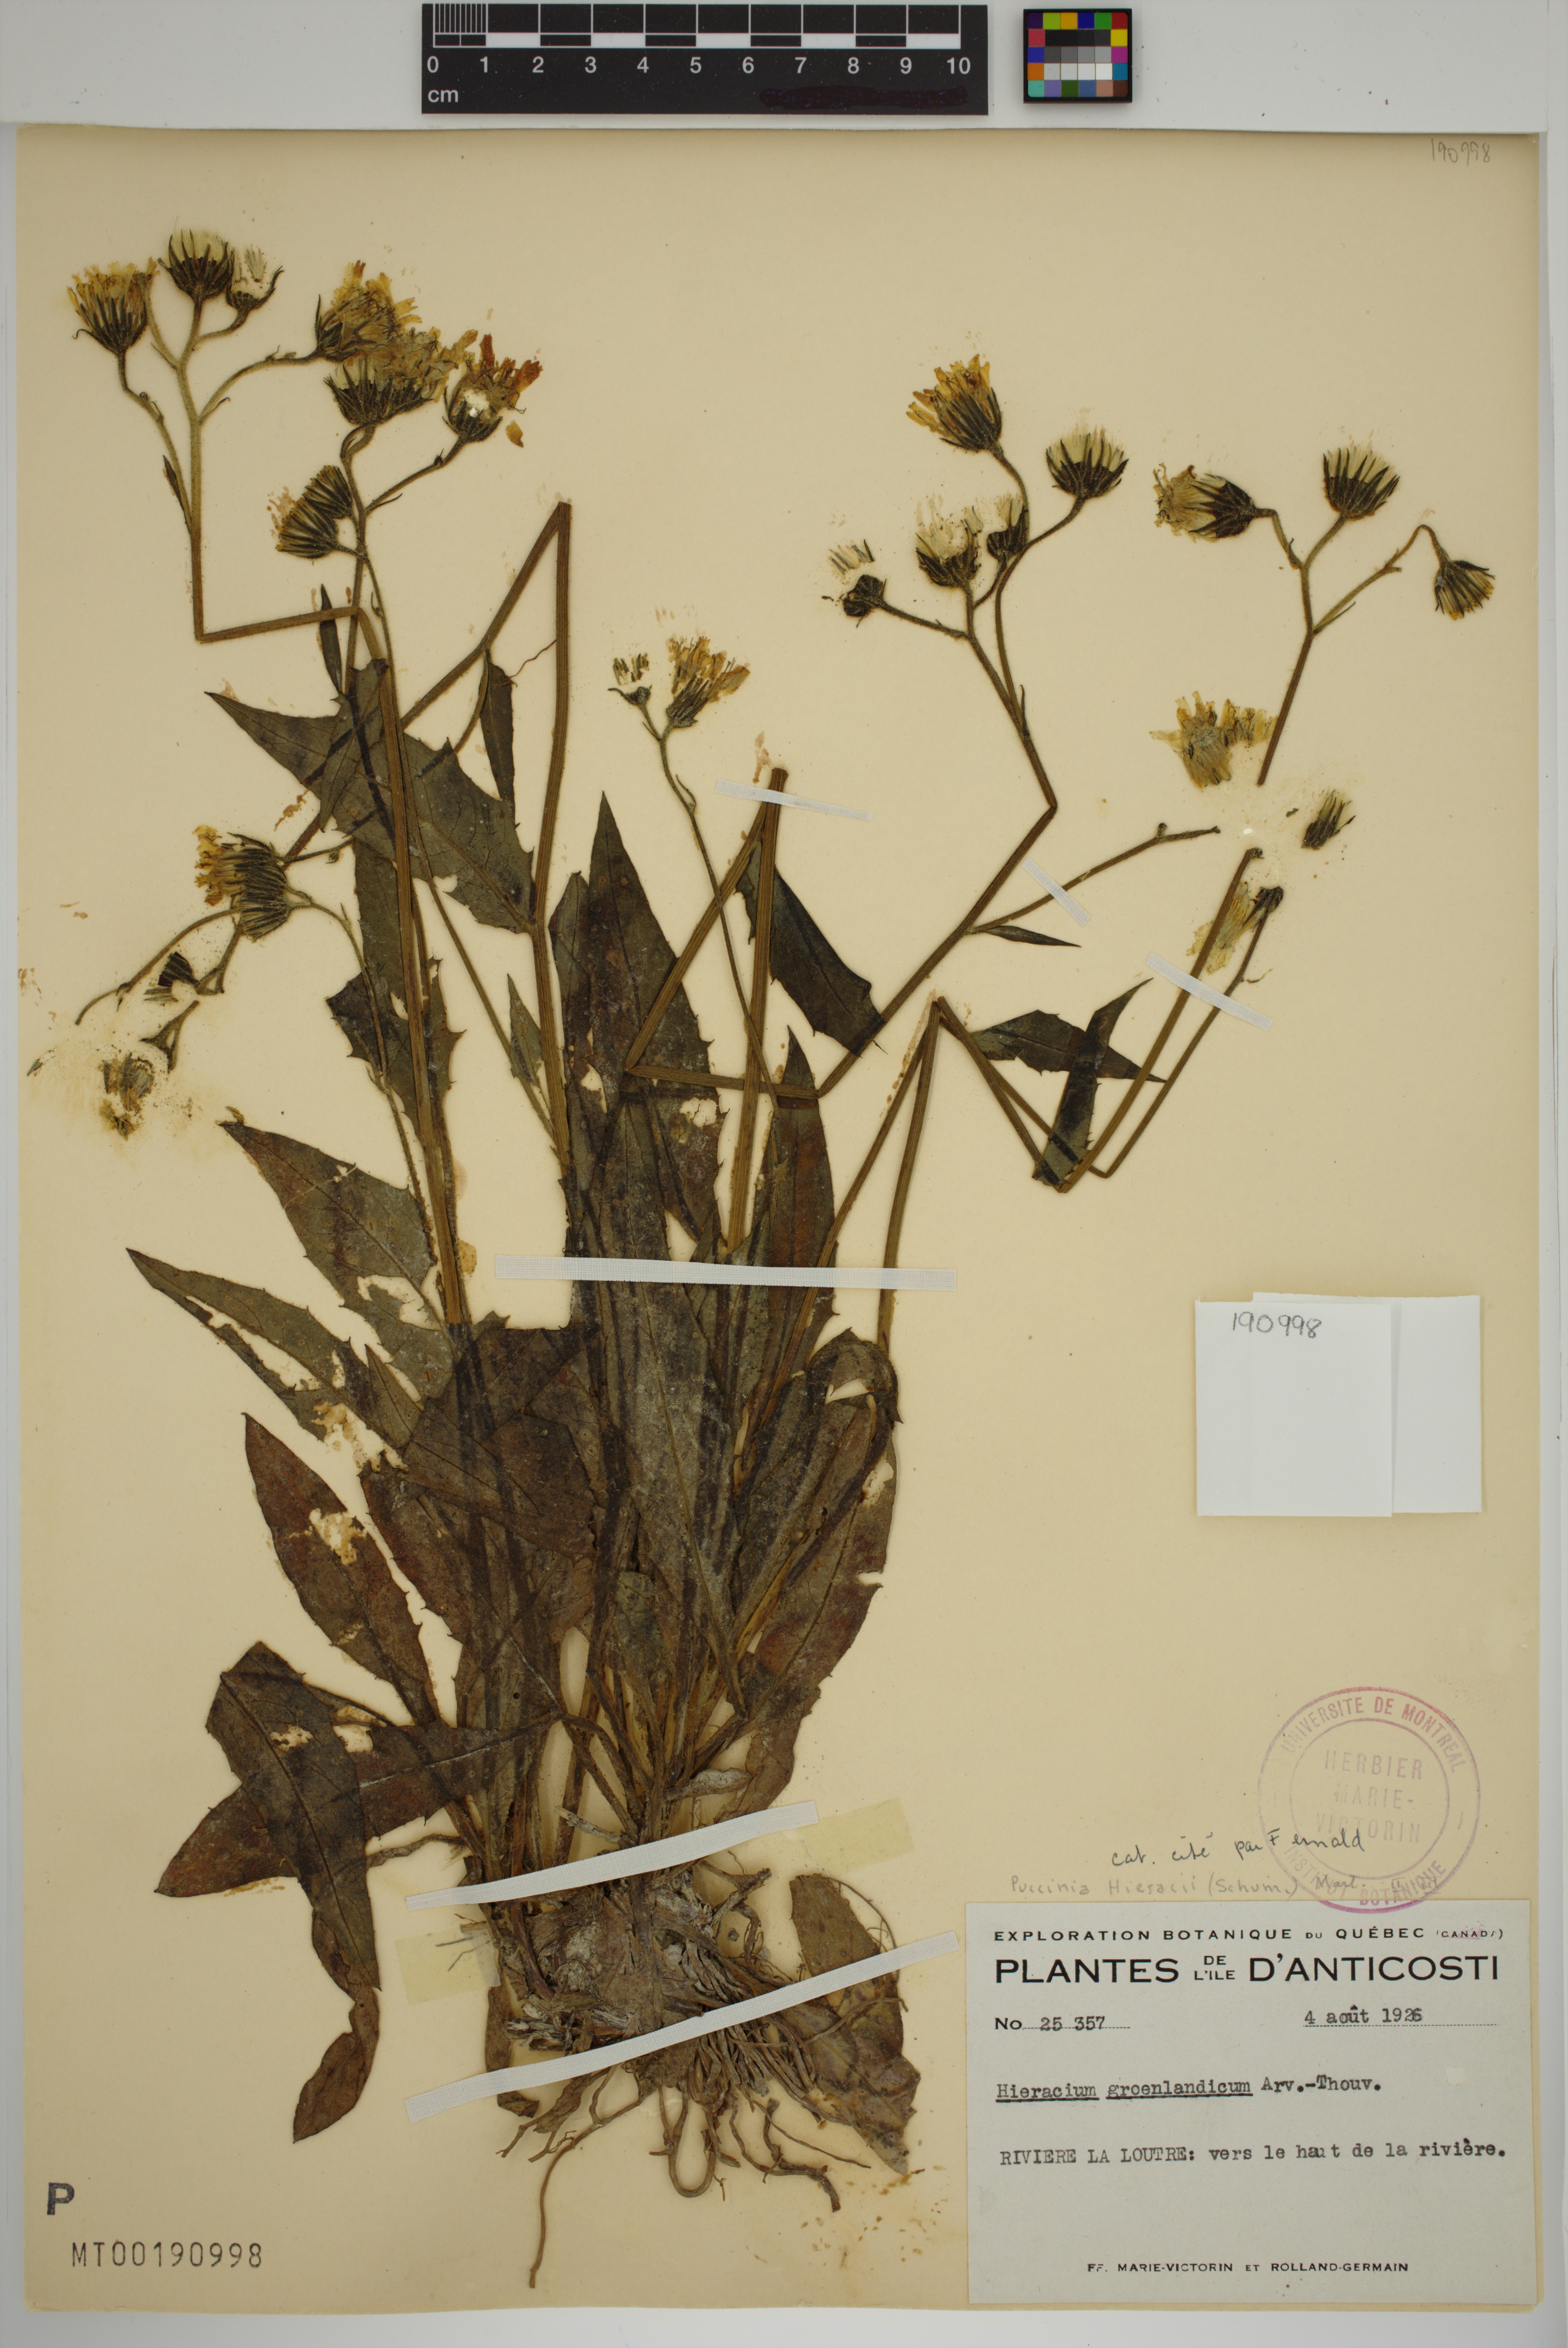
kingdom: Plantae
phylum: Tracheophyta
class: Magnoliopsida
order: Asterales
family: Asteraceae
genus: Hieracium
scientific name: Hieracium lachenalii
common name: Common hawkweed
